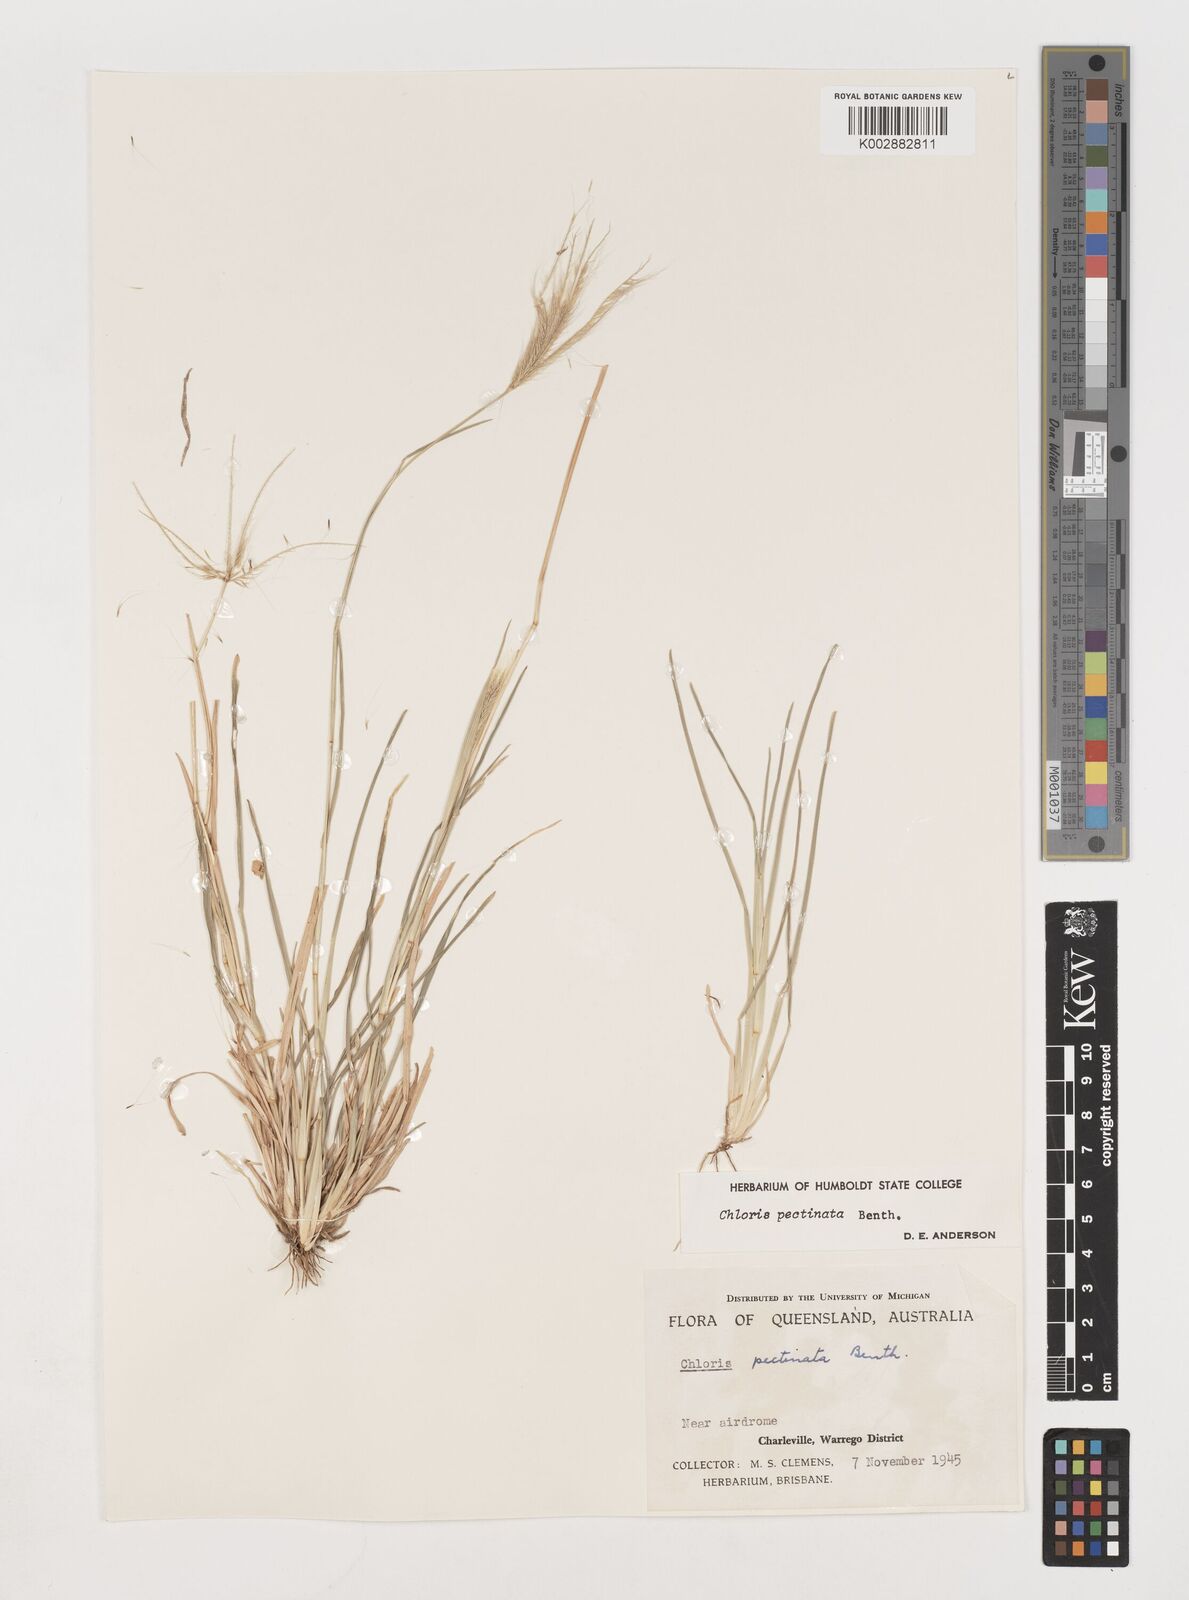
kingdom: Plantae
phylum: Tracheophyta
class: Liliopsida
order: Poales
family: Poaceae
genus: Chloris
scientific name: Chloris pectinata
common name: Comb windmill grass
